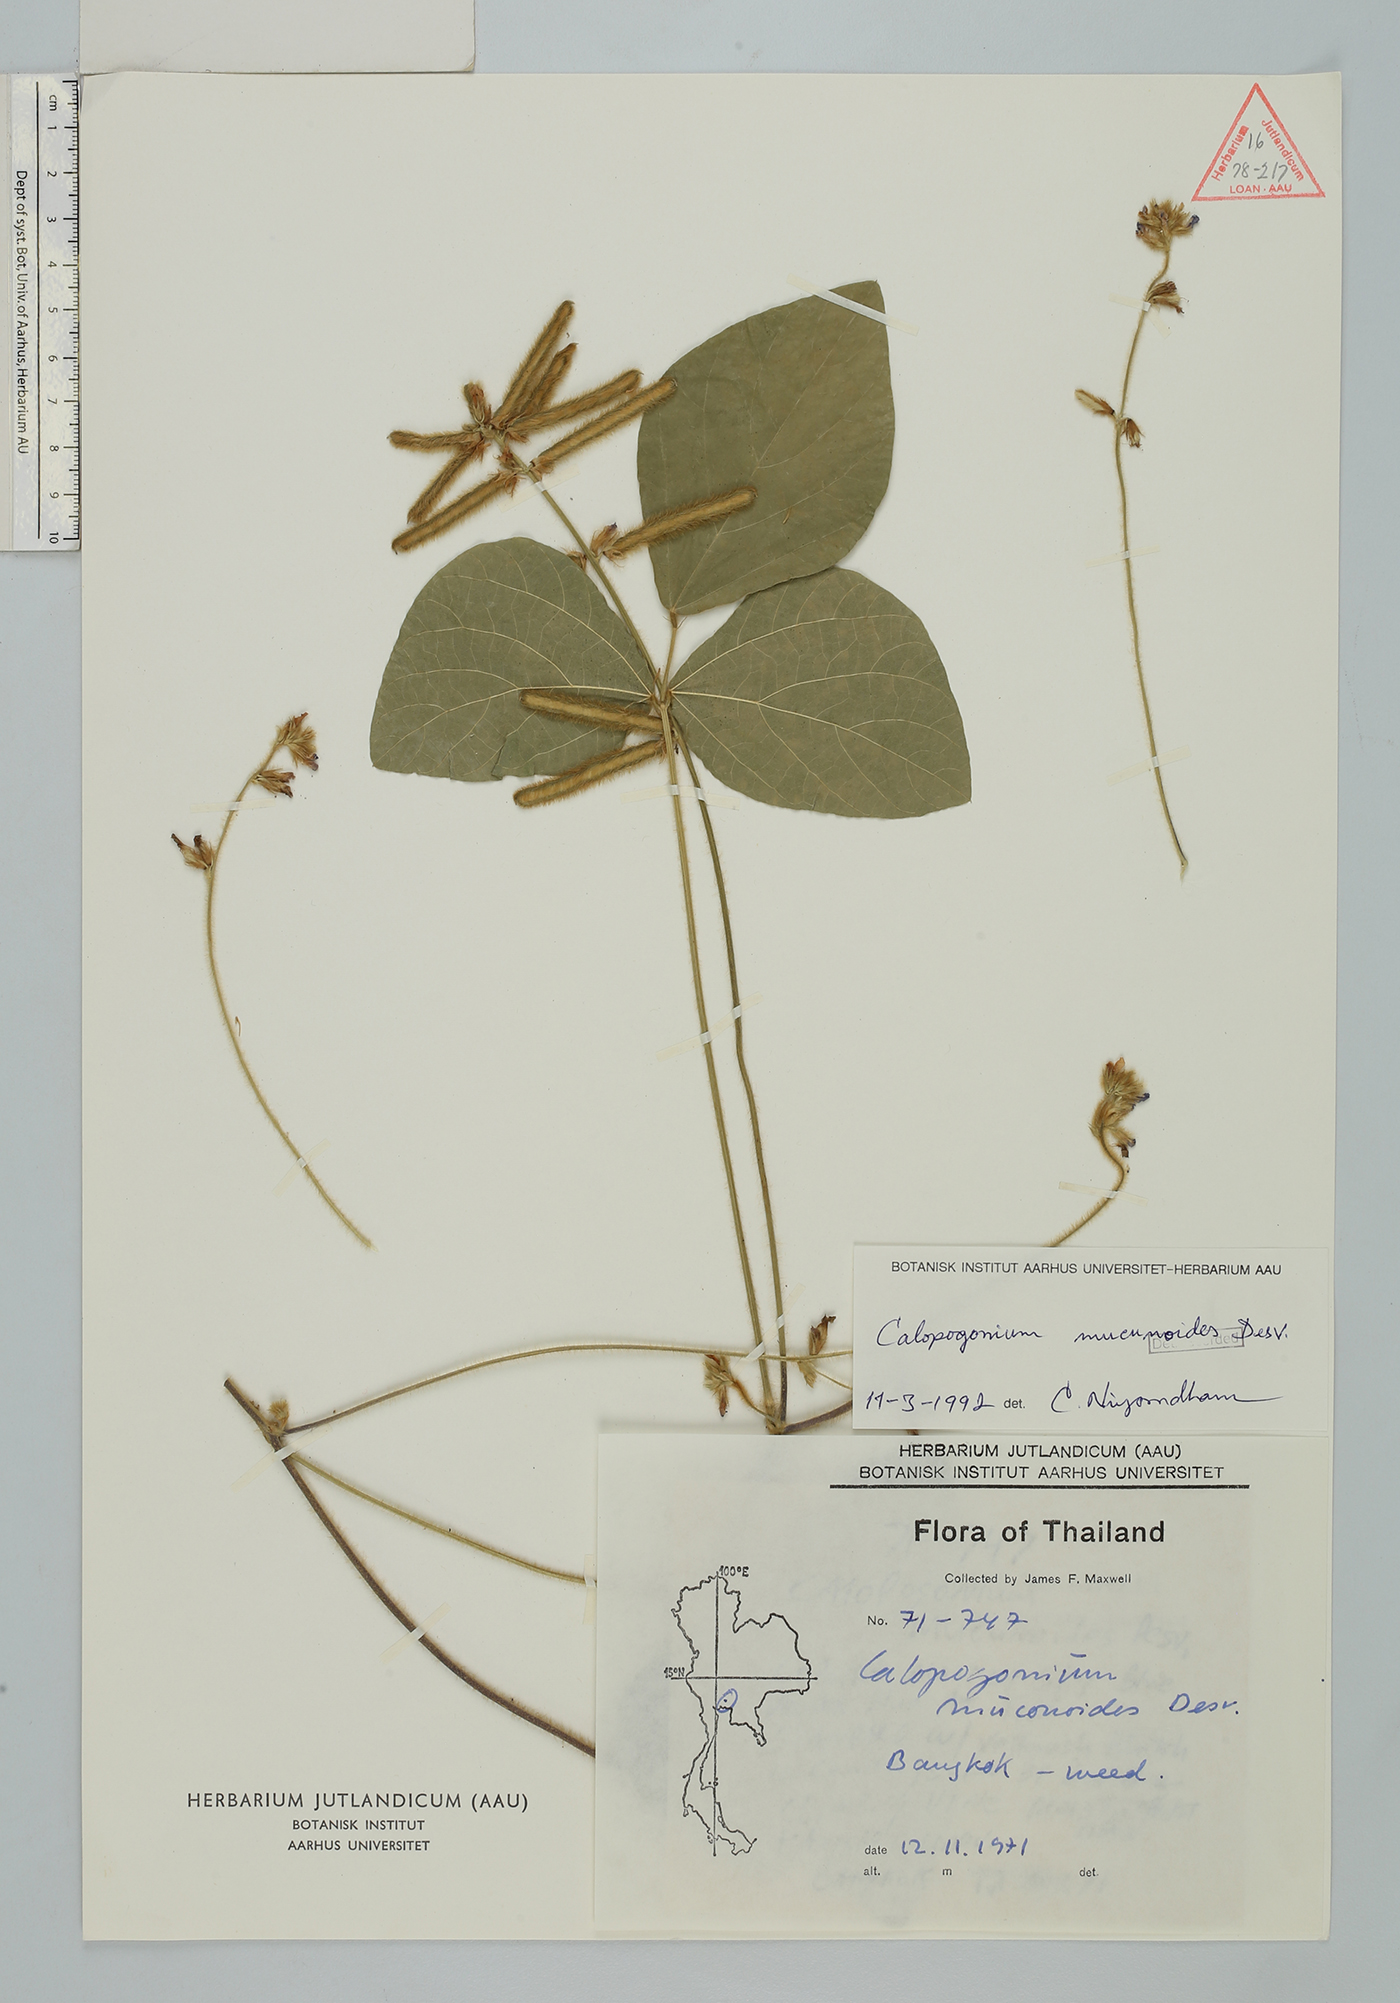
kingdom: Plantae
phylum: Tracheophyta
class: Magnoliopsida
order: Fabales
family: Fabaceae
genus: Calopogonium
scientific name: Calopogonium mucunoides
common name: Calopo
